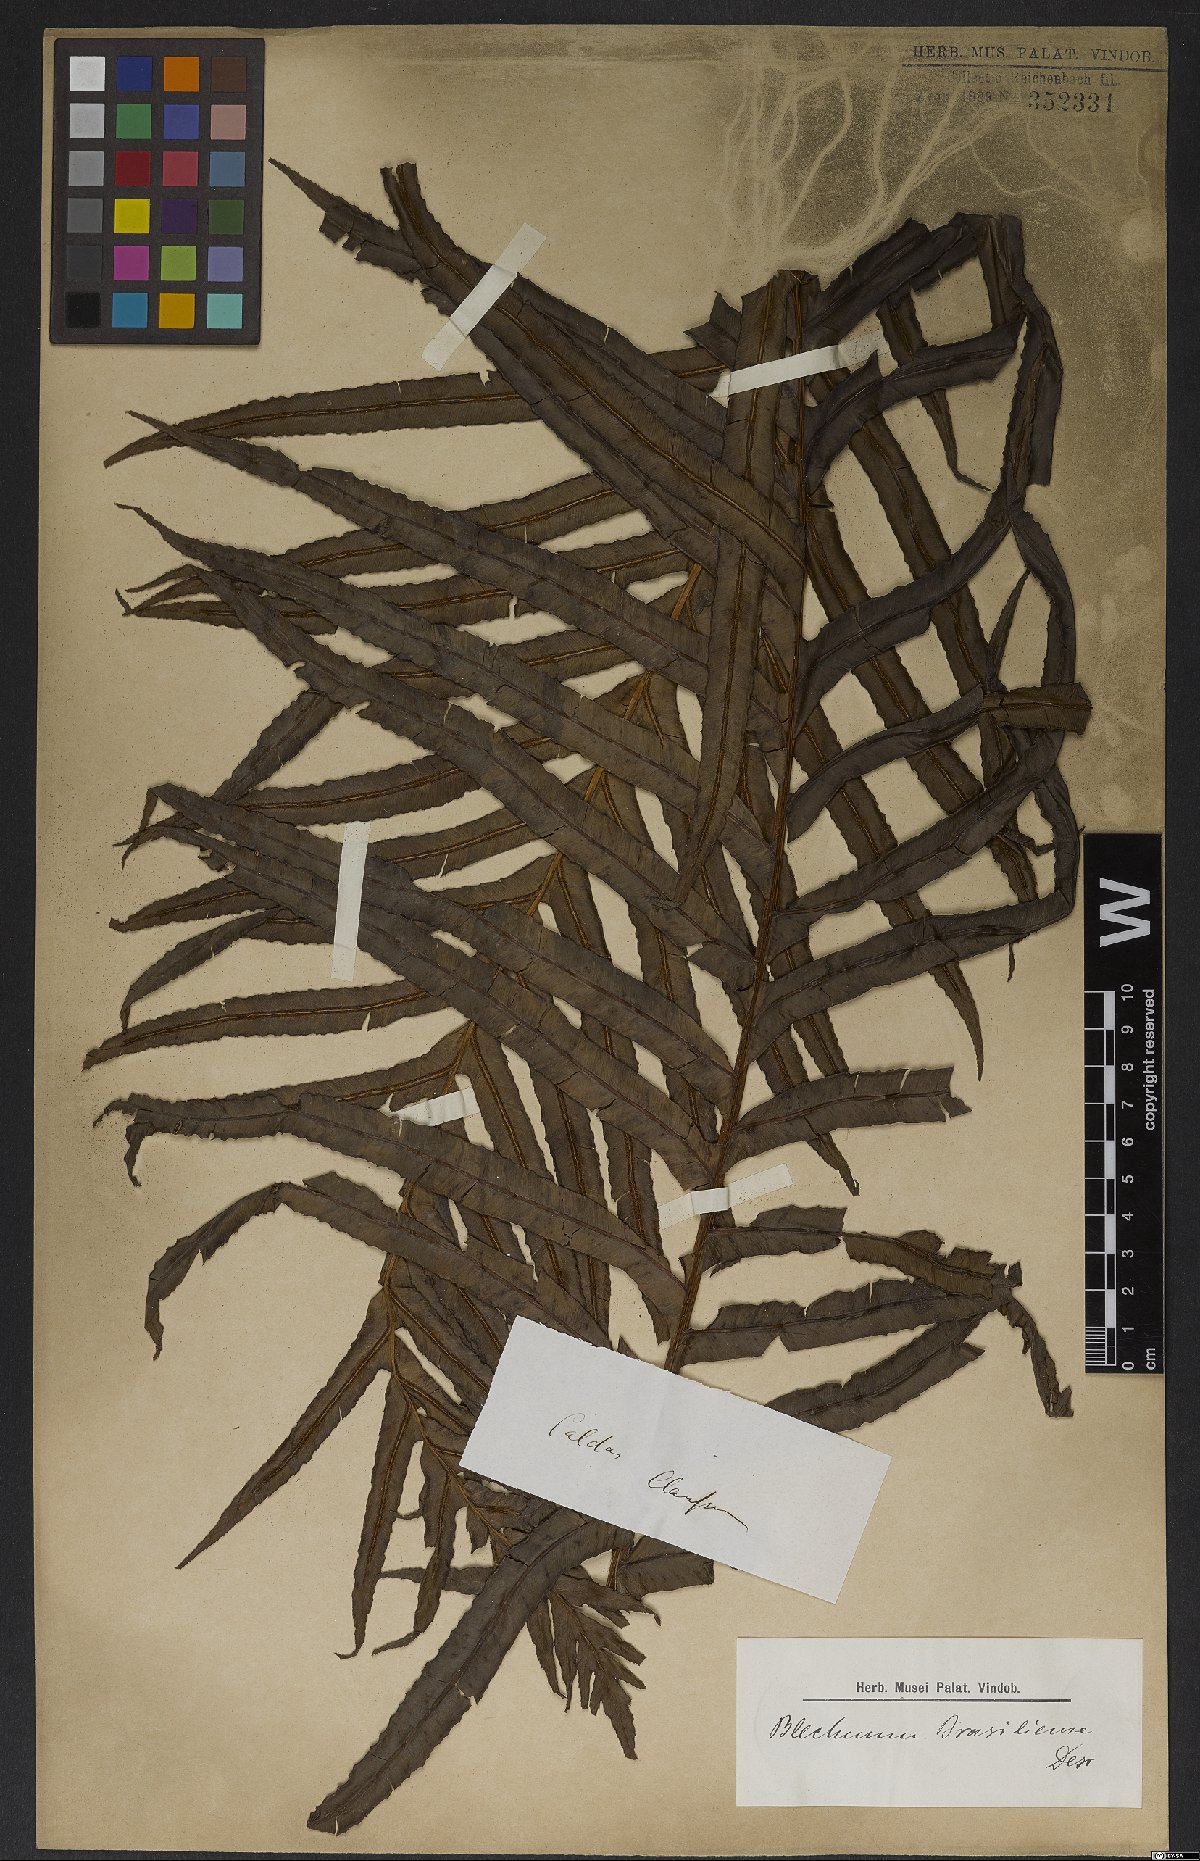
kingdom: Plantae
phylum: Tracheophyta
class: Polypodiopsida
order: Polypodiales
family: Blechnaceae
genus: Neoblechnum
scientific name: Neoblechnum brasiliense
